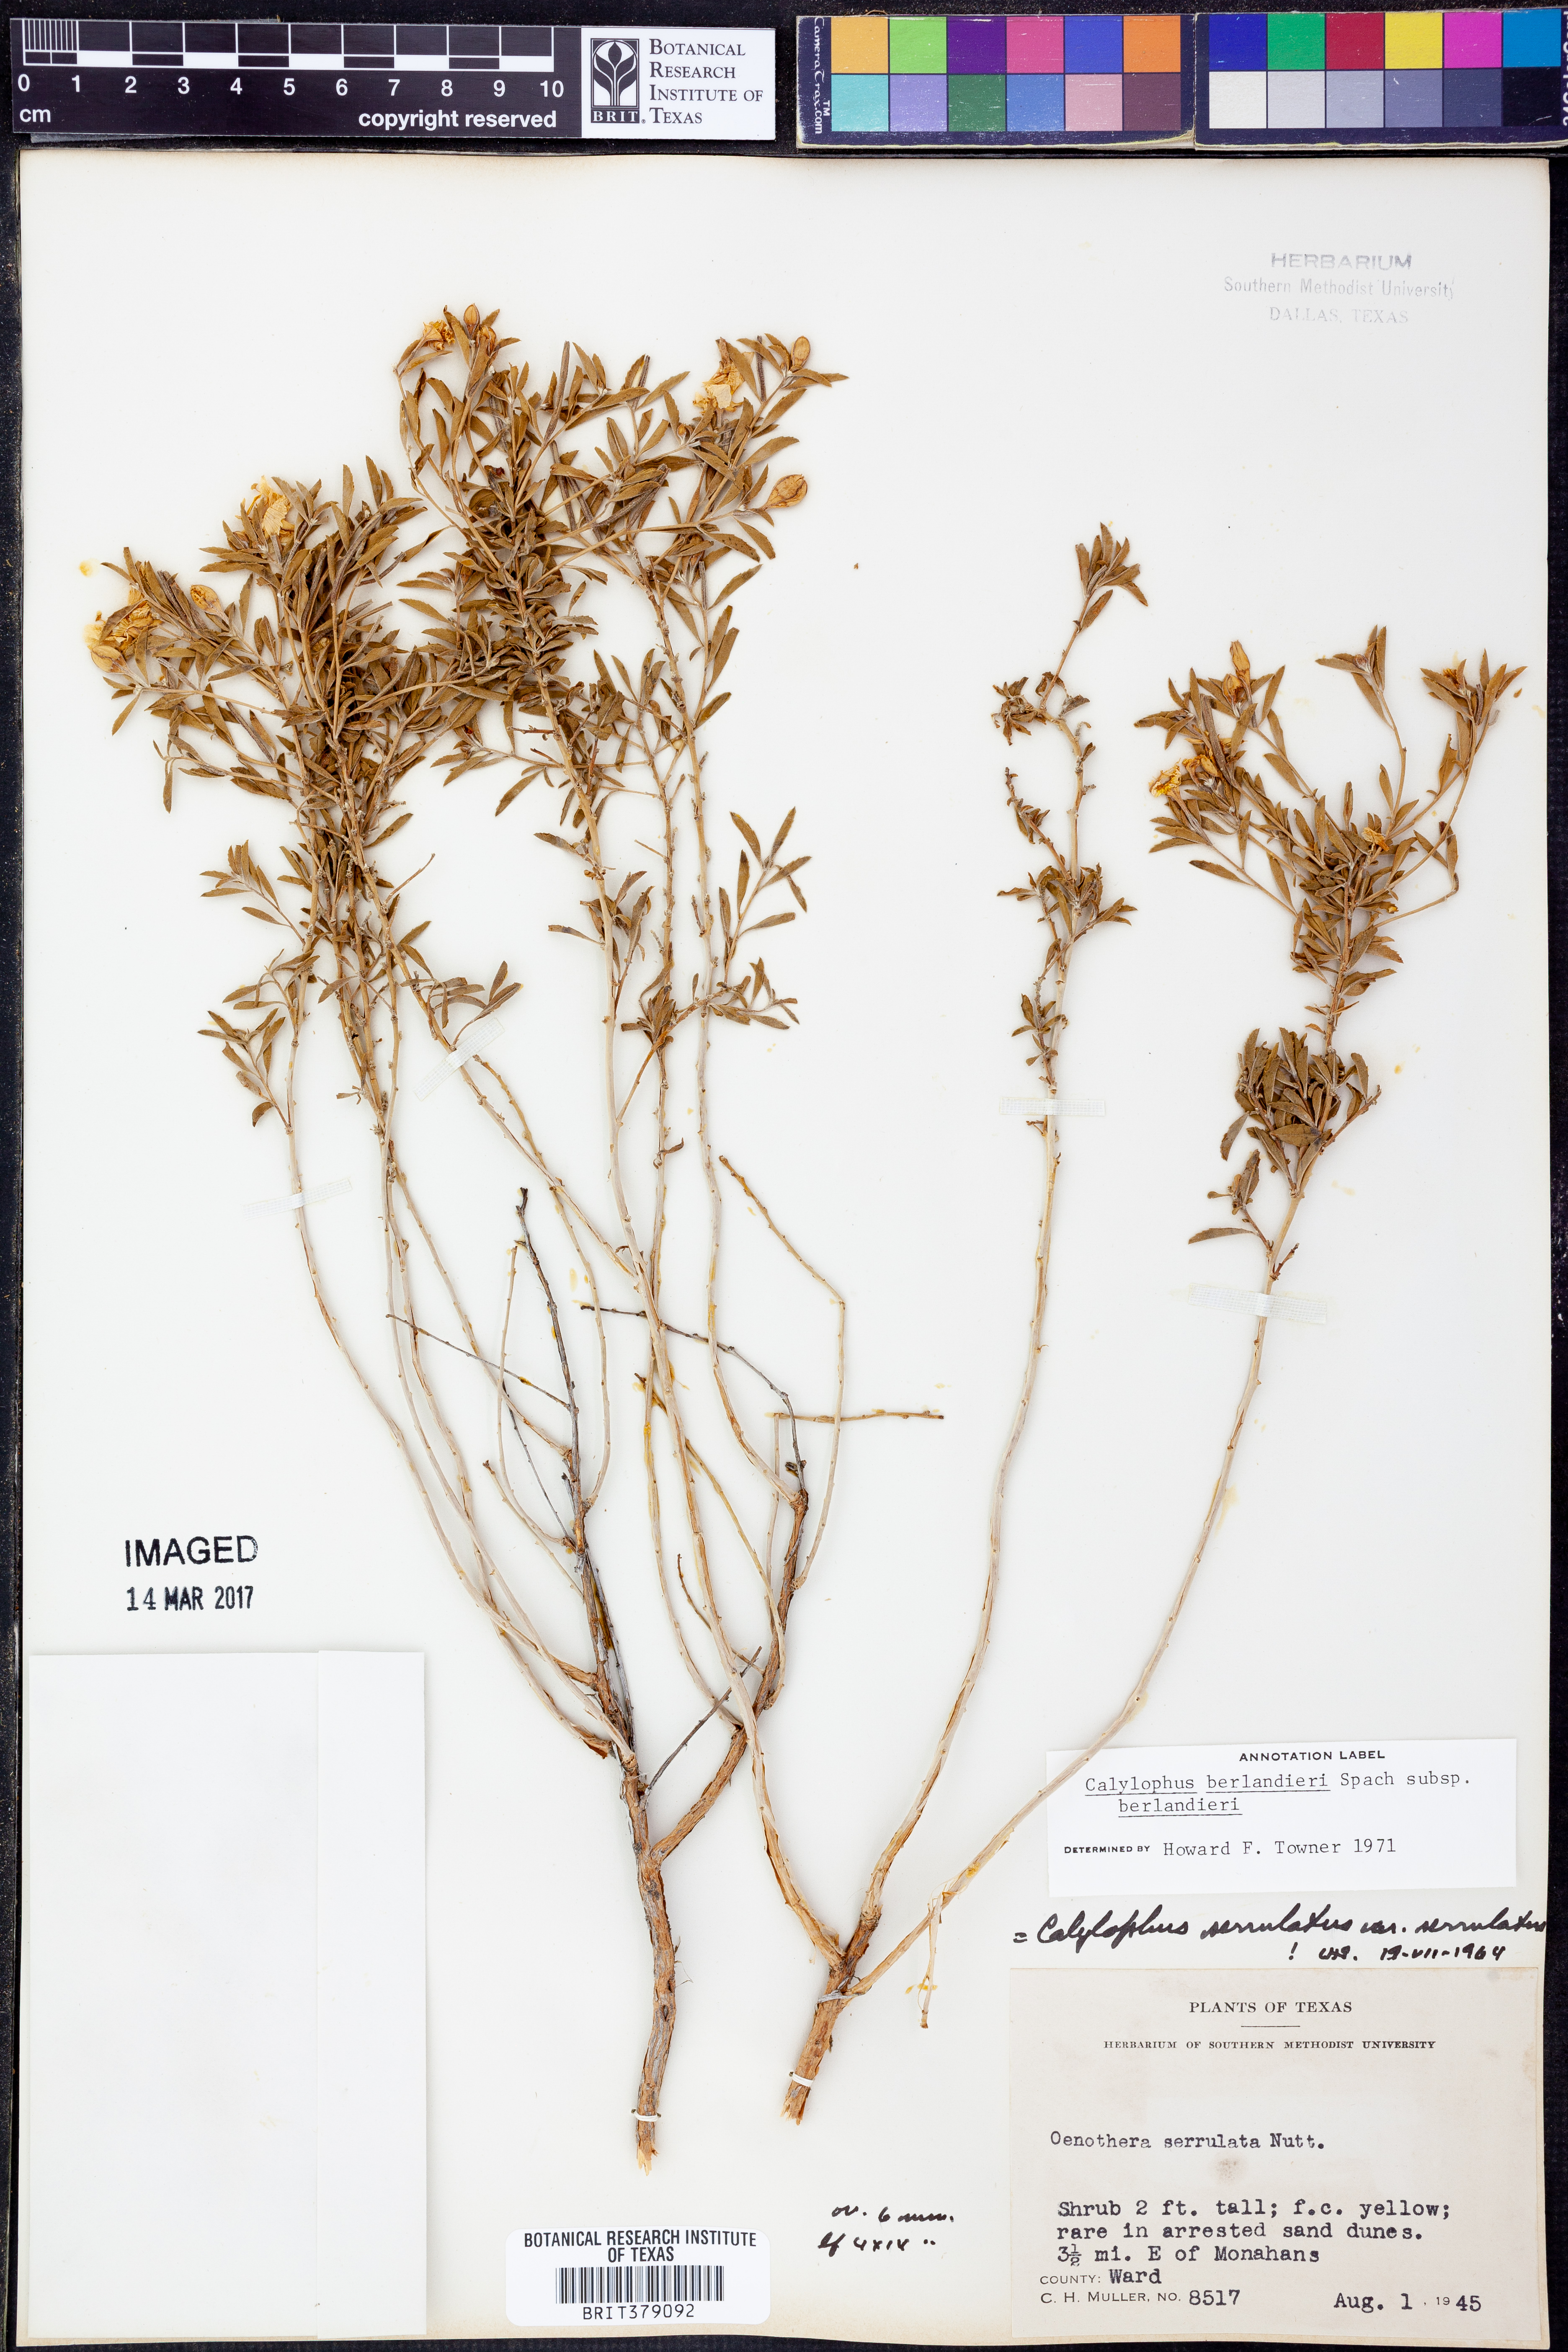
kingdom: Plantae
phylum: Tracheophyta
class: Magnoliopsida
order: Myrtales
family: Onagraceae
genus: Oenothera
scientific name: Oenothera capillifolia
